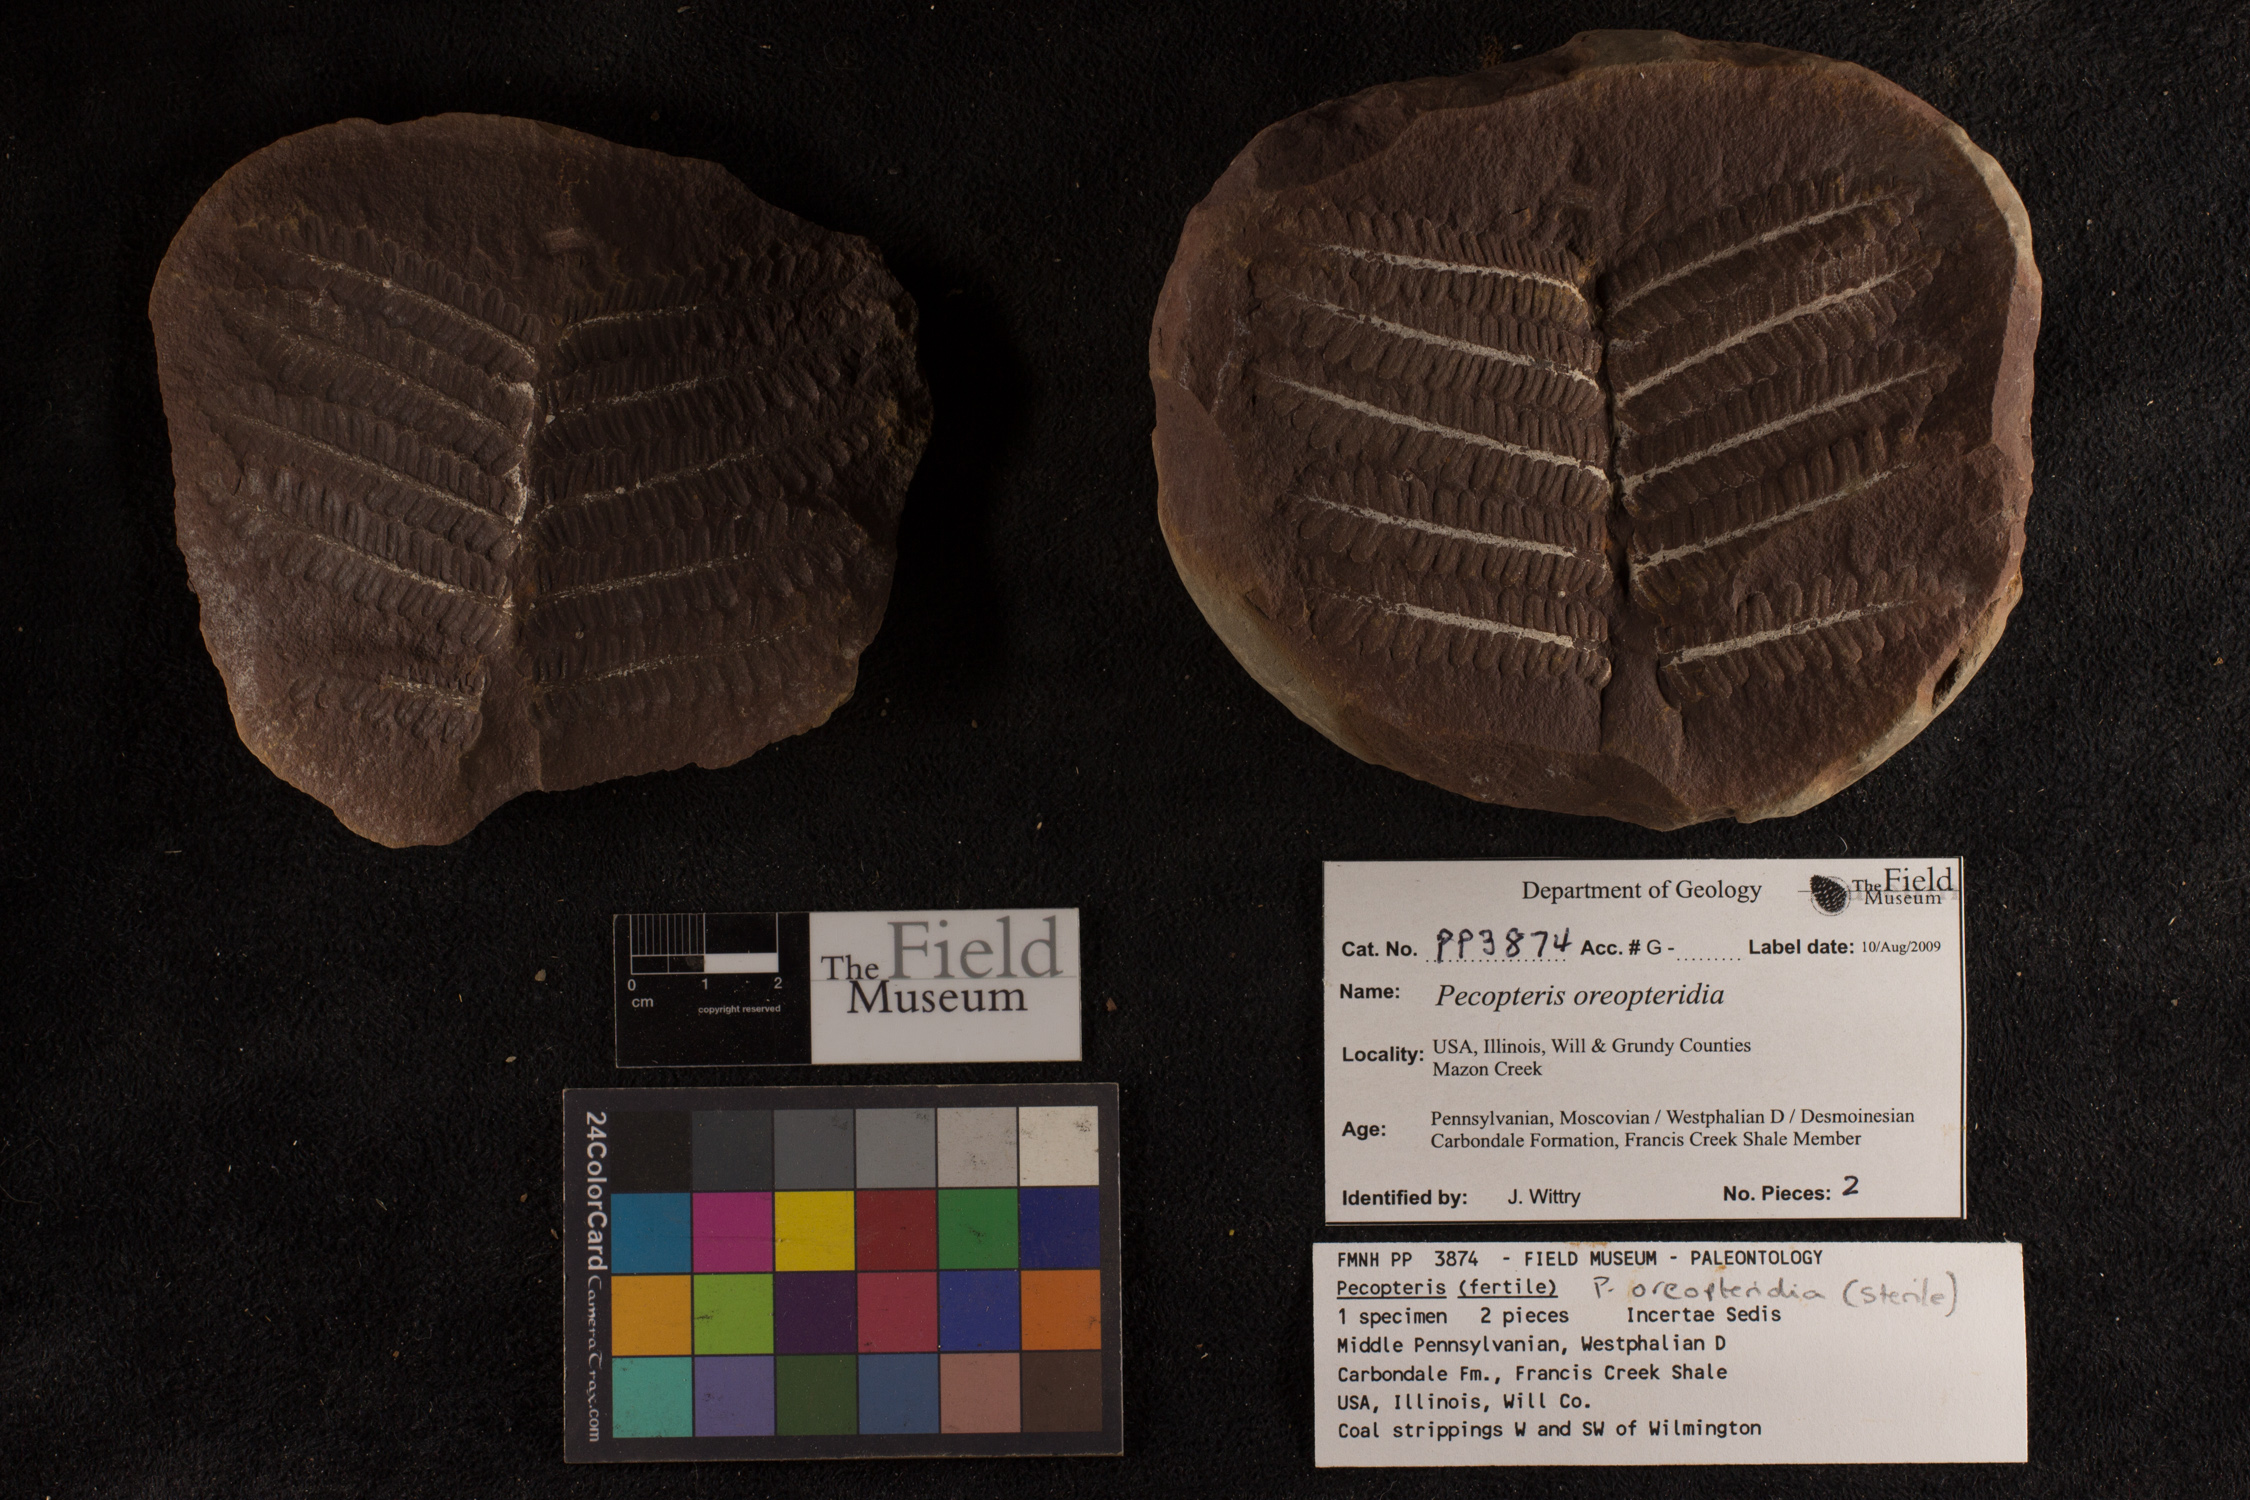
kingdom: Plantae
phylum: Tracheophyta
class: Polypodiopsida
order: Marattiales
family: Asterothecaceae
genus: Pecopteris
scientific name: Pecopteris
